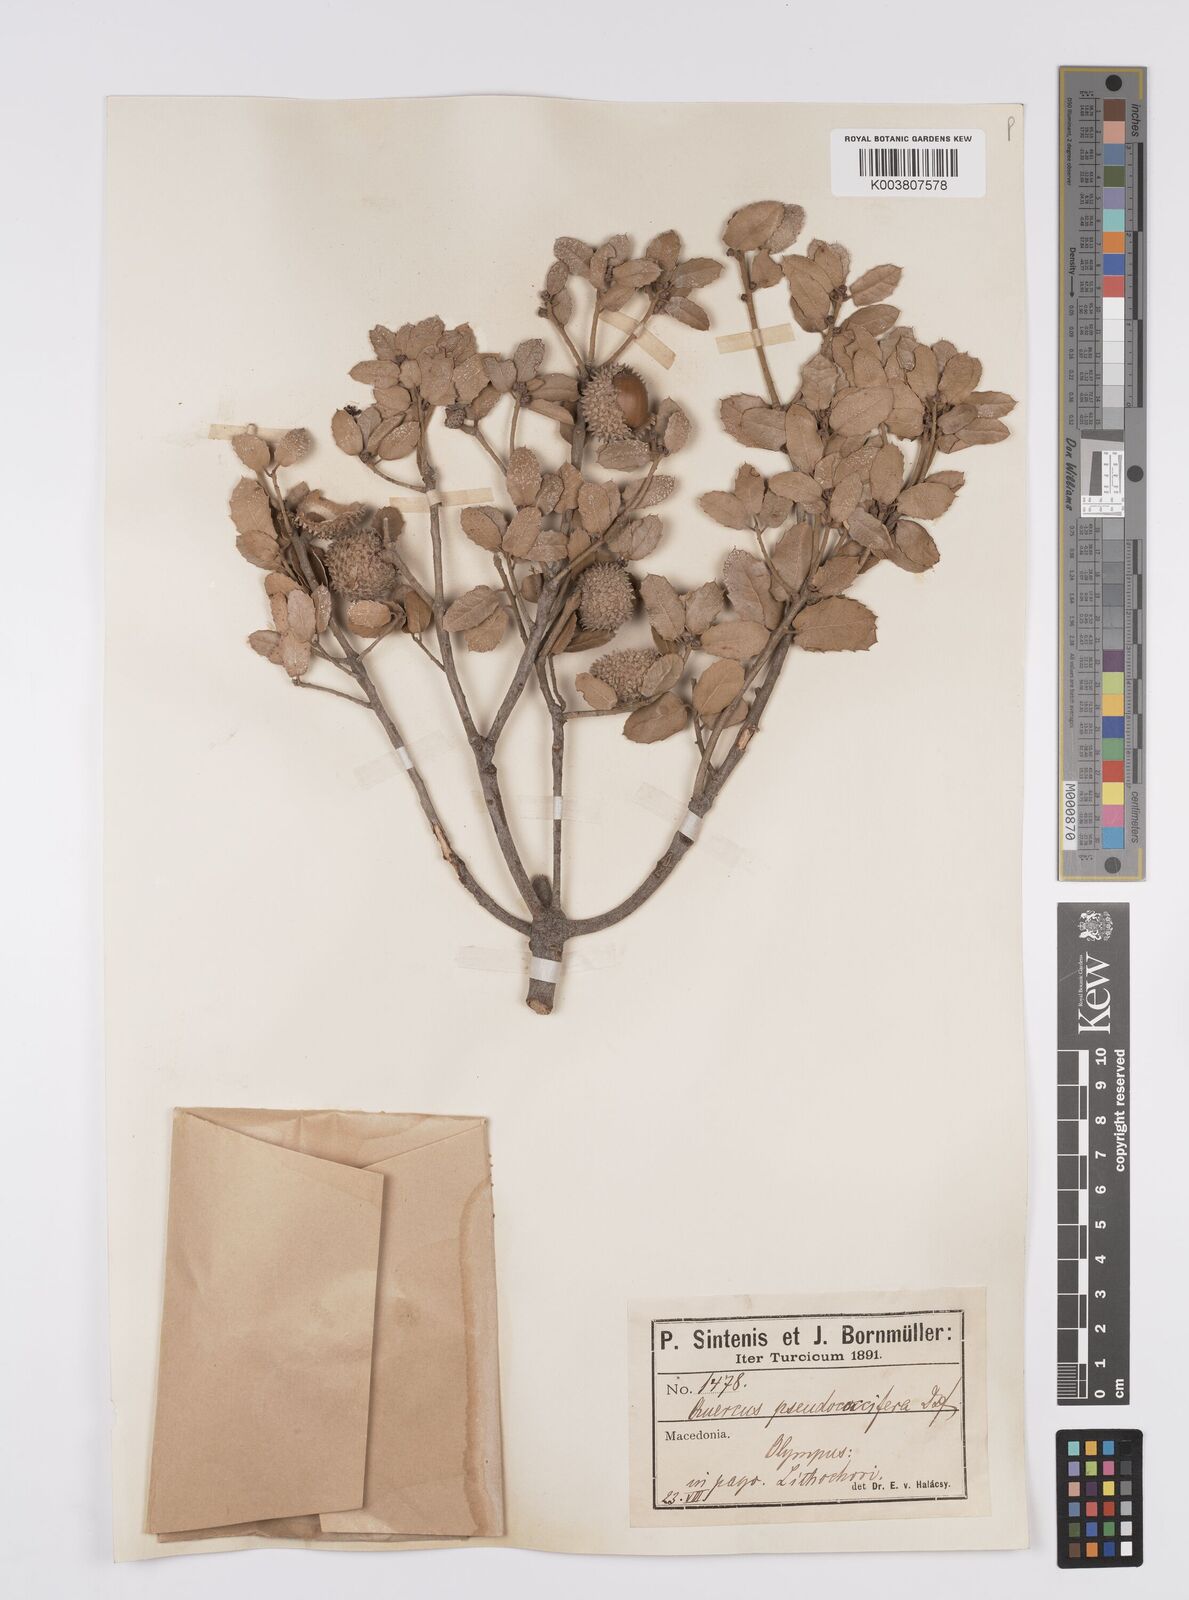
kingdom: Plantae
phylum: Tracheophyta
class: Magnoliopsida
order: Fagales
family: Fagaceae
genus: Quercus
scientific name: Quercus coccifera
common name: Kermes oak
